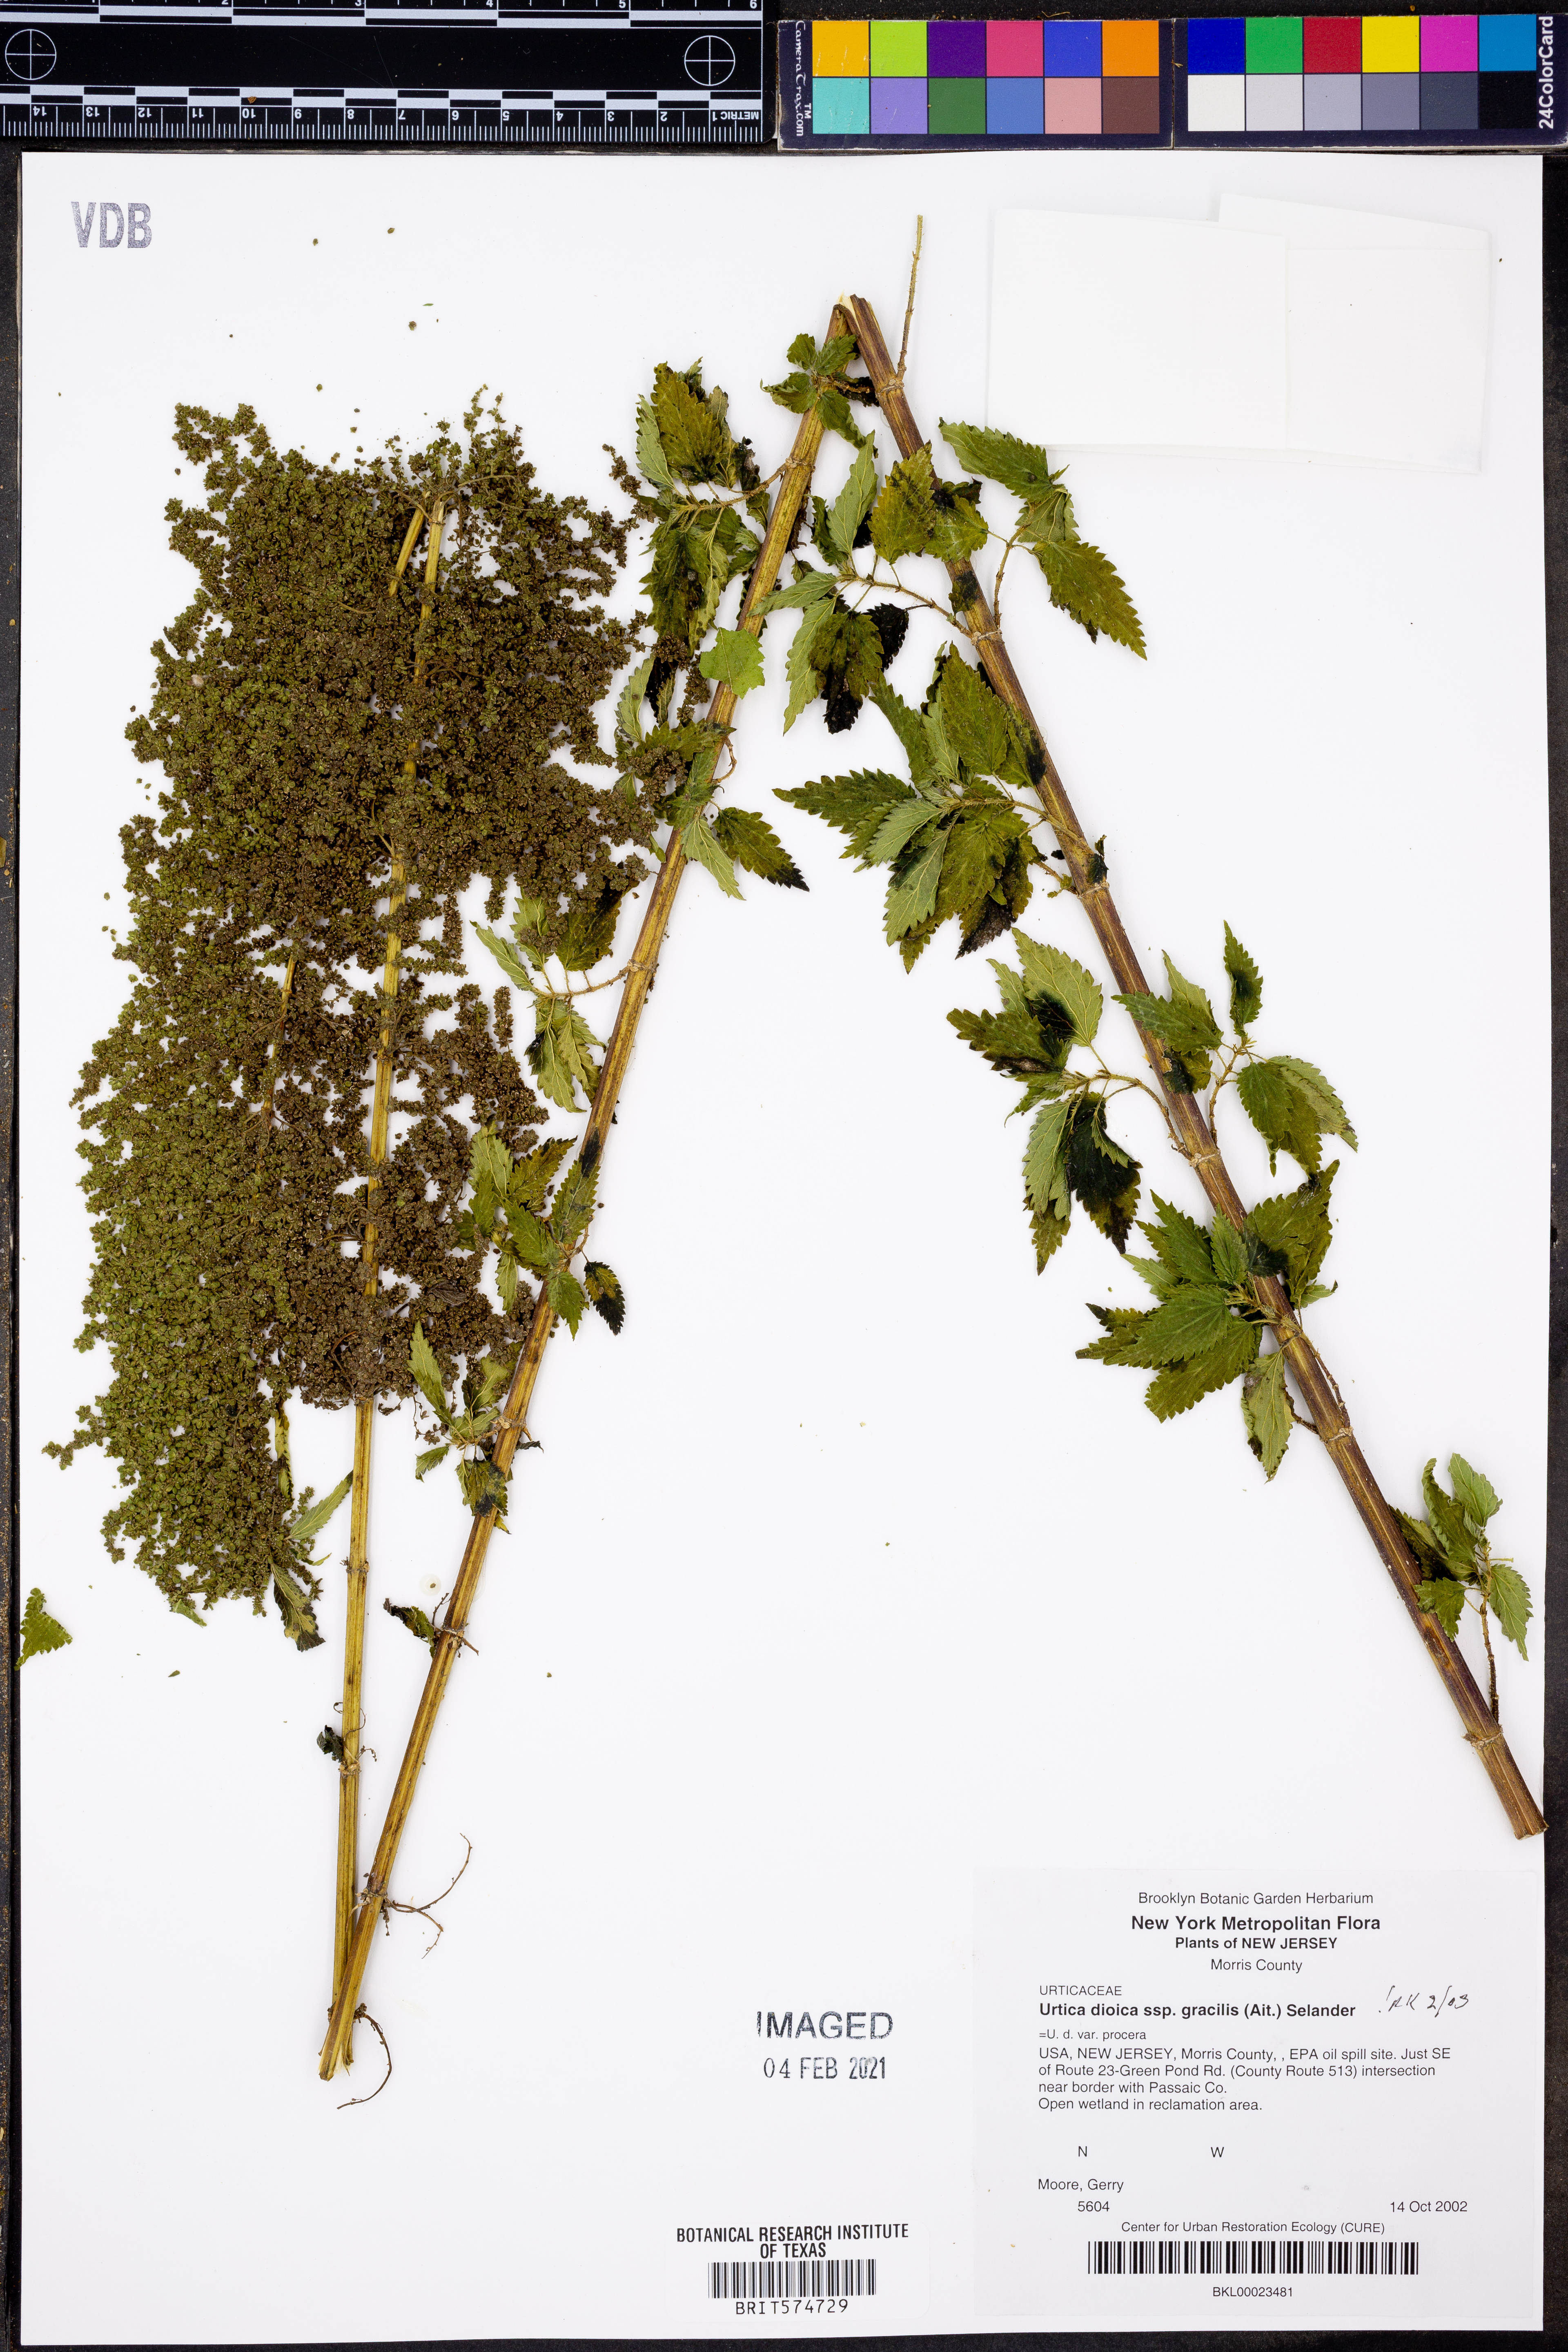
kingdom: Plantae
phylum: Tracheophyta
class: Magnoliopsida
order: Rosales
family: Urticaceae
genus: Urtica
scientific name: Urtica gracilis
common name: Slender stinging nettle
